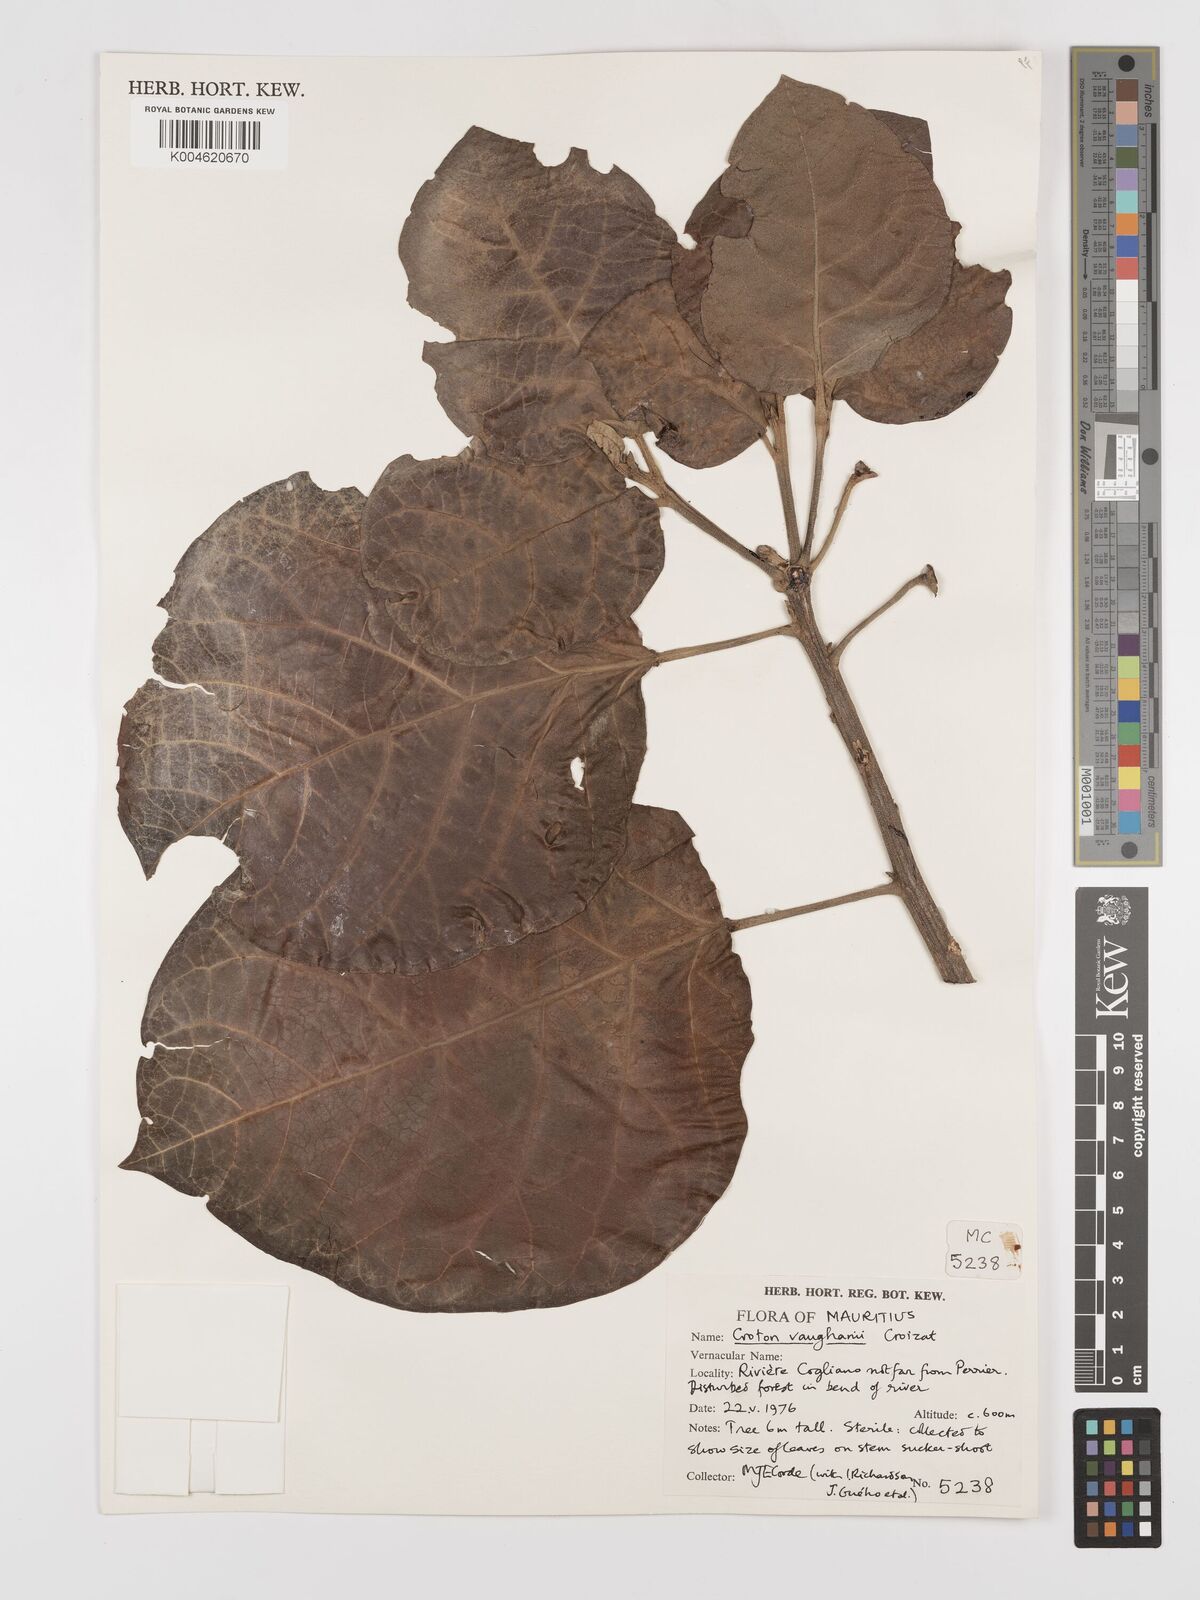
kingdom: Plantae
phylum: Tracheophyta
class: Magnoliopsida
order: Malpighiales
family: Euphorbiaceae
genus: Croton
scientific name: Croton vaughanii
